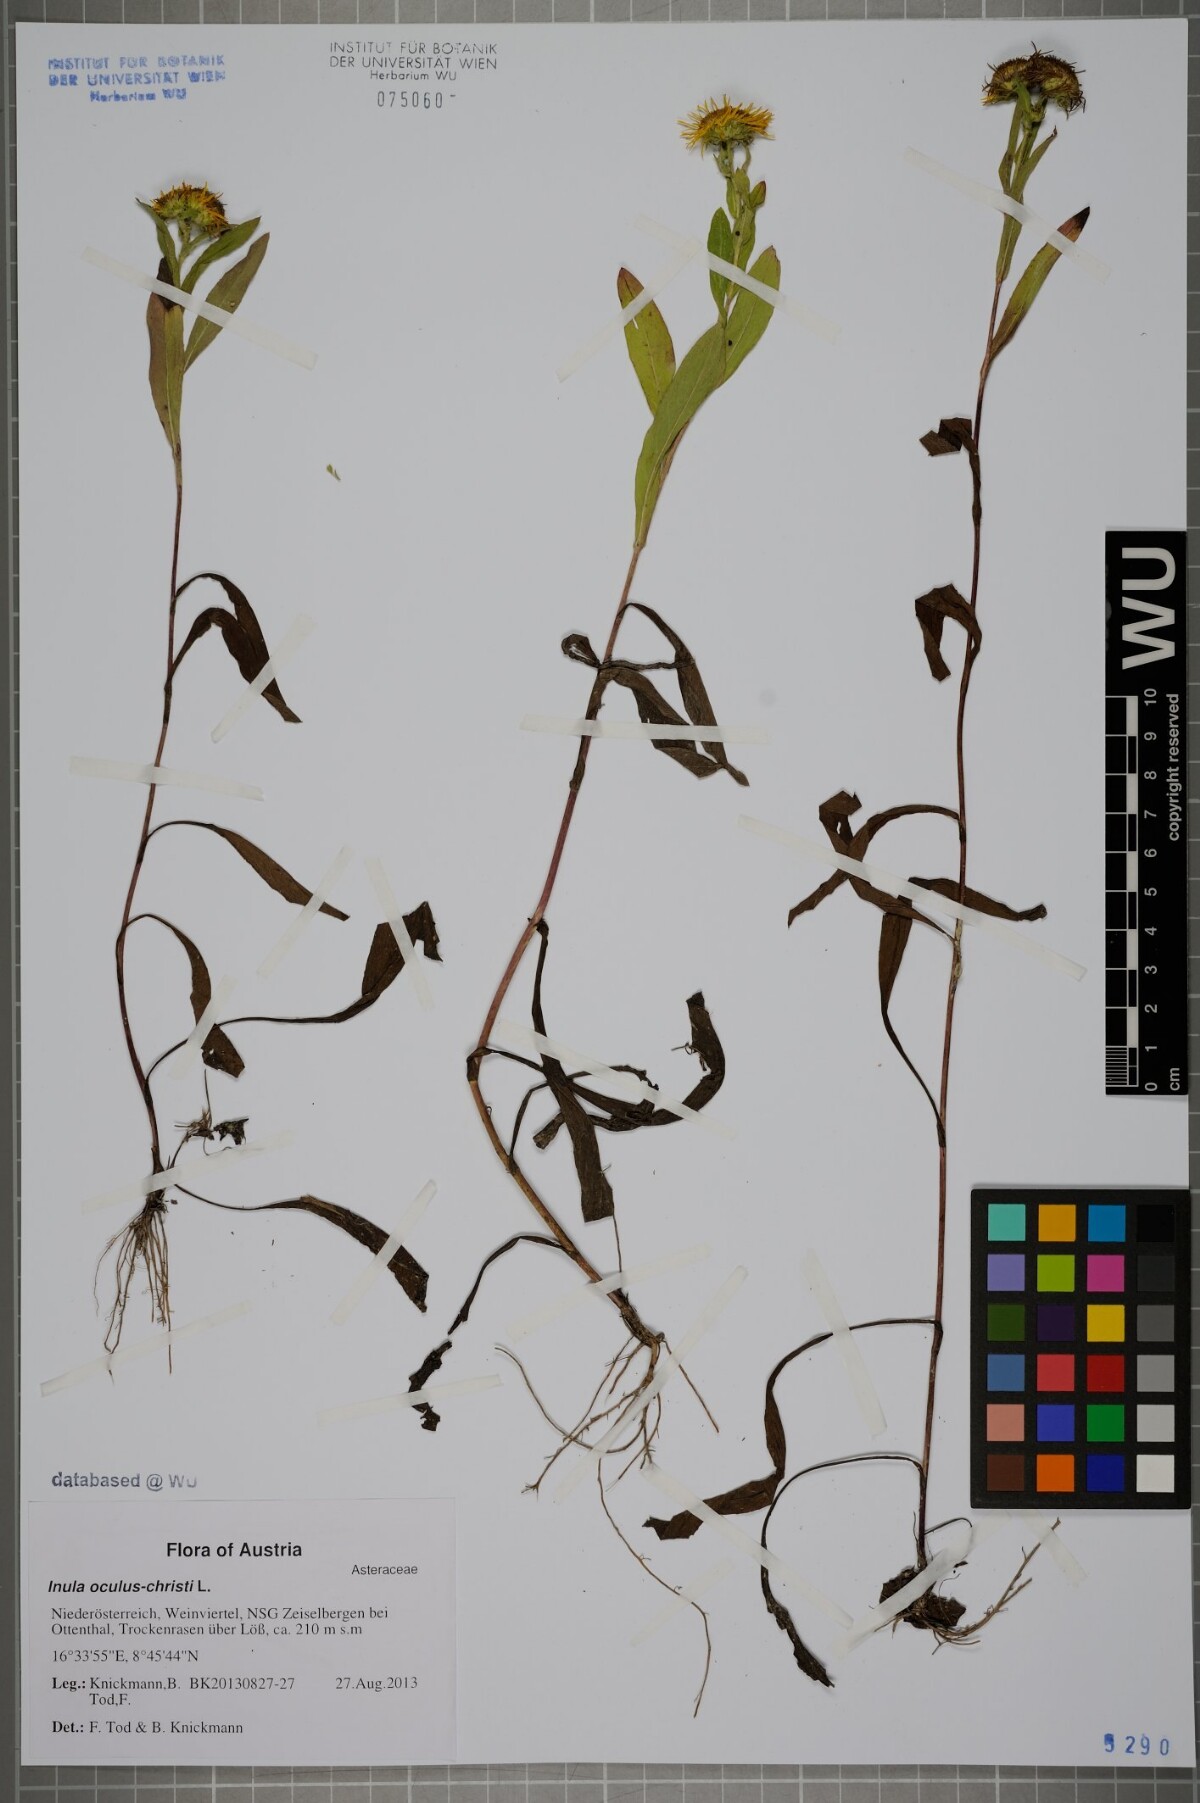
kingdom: Plantae
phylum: Tracheophyta
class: Magnoliopsida
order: Asterales
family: Asteraceae
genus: Pentanema
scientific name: Pentanema britannicum
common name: British elecampane
